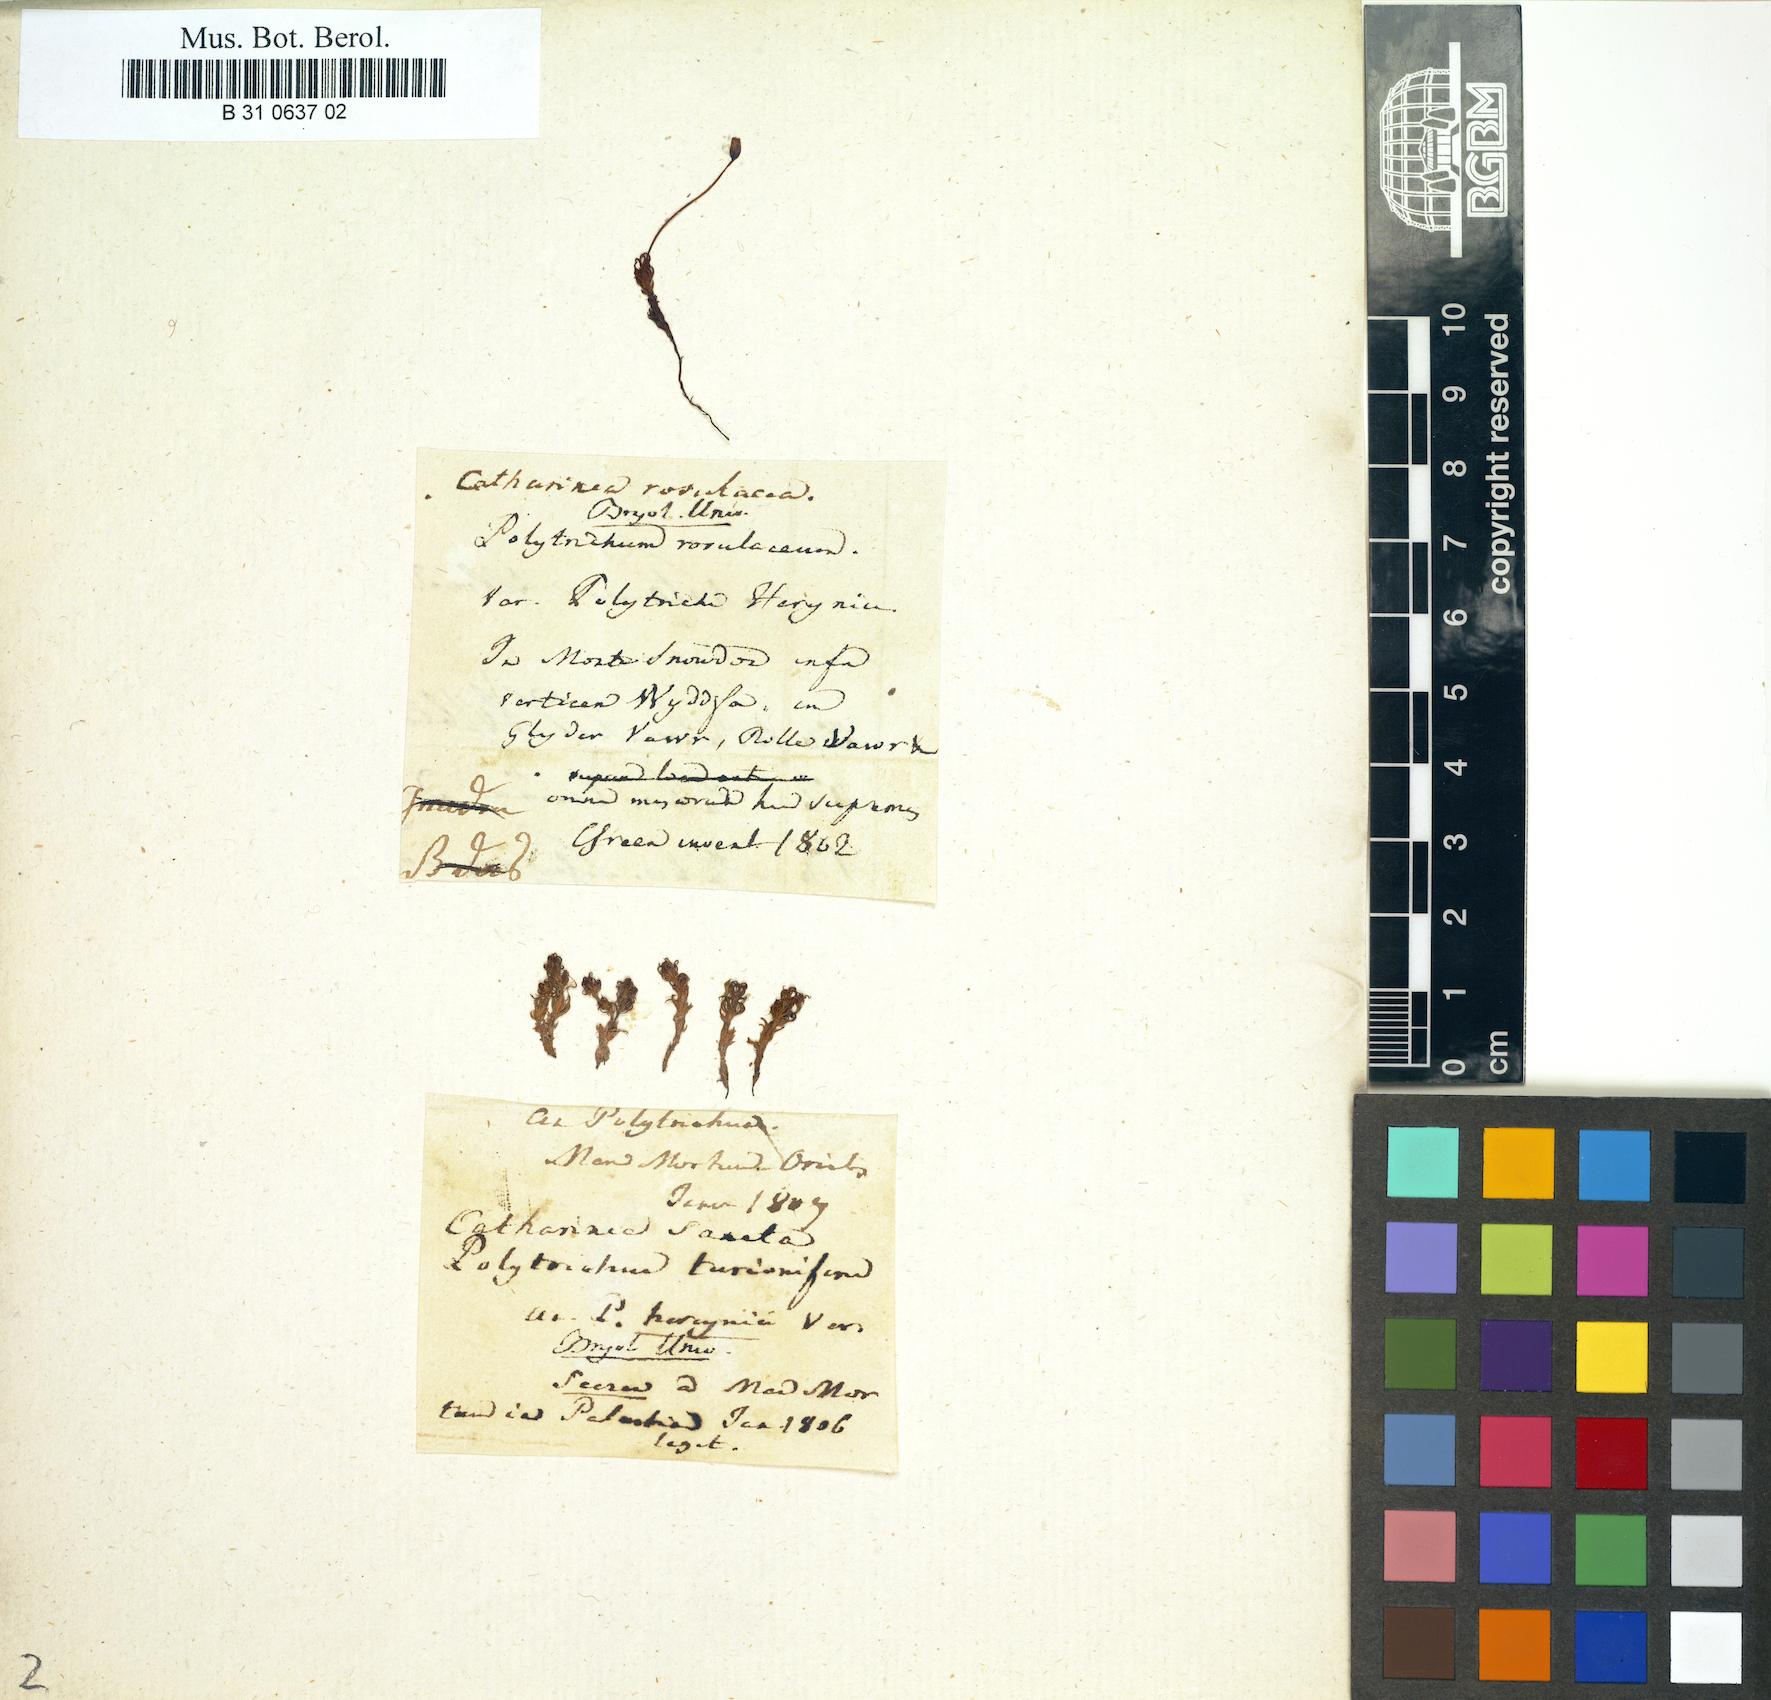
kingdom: Plantae
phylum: Bryophyta
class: Polytrichopsida
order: Polytrichales
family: Polytrichaceae
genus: Oligotrichum
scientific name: Oligotrichum hercynicum
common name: Hercynian hair moss
